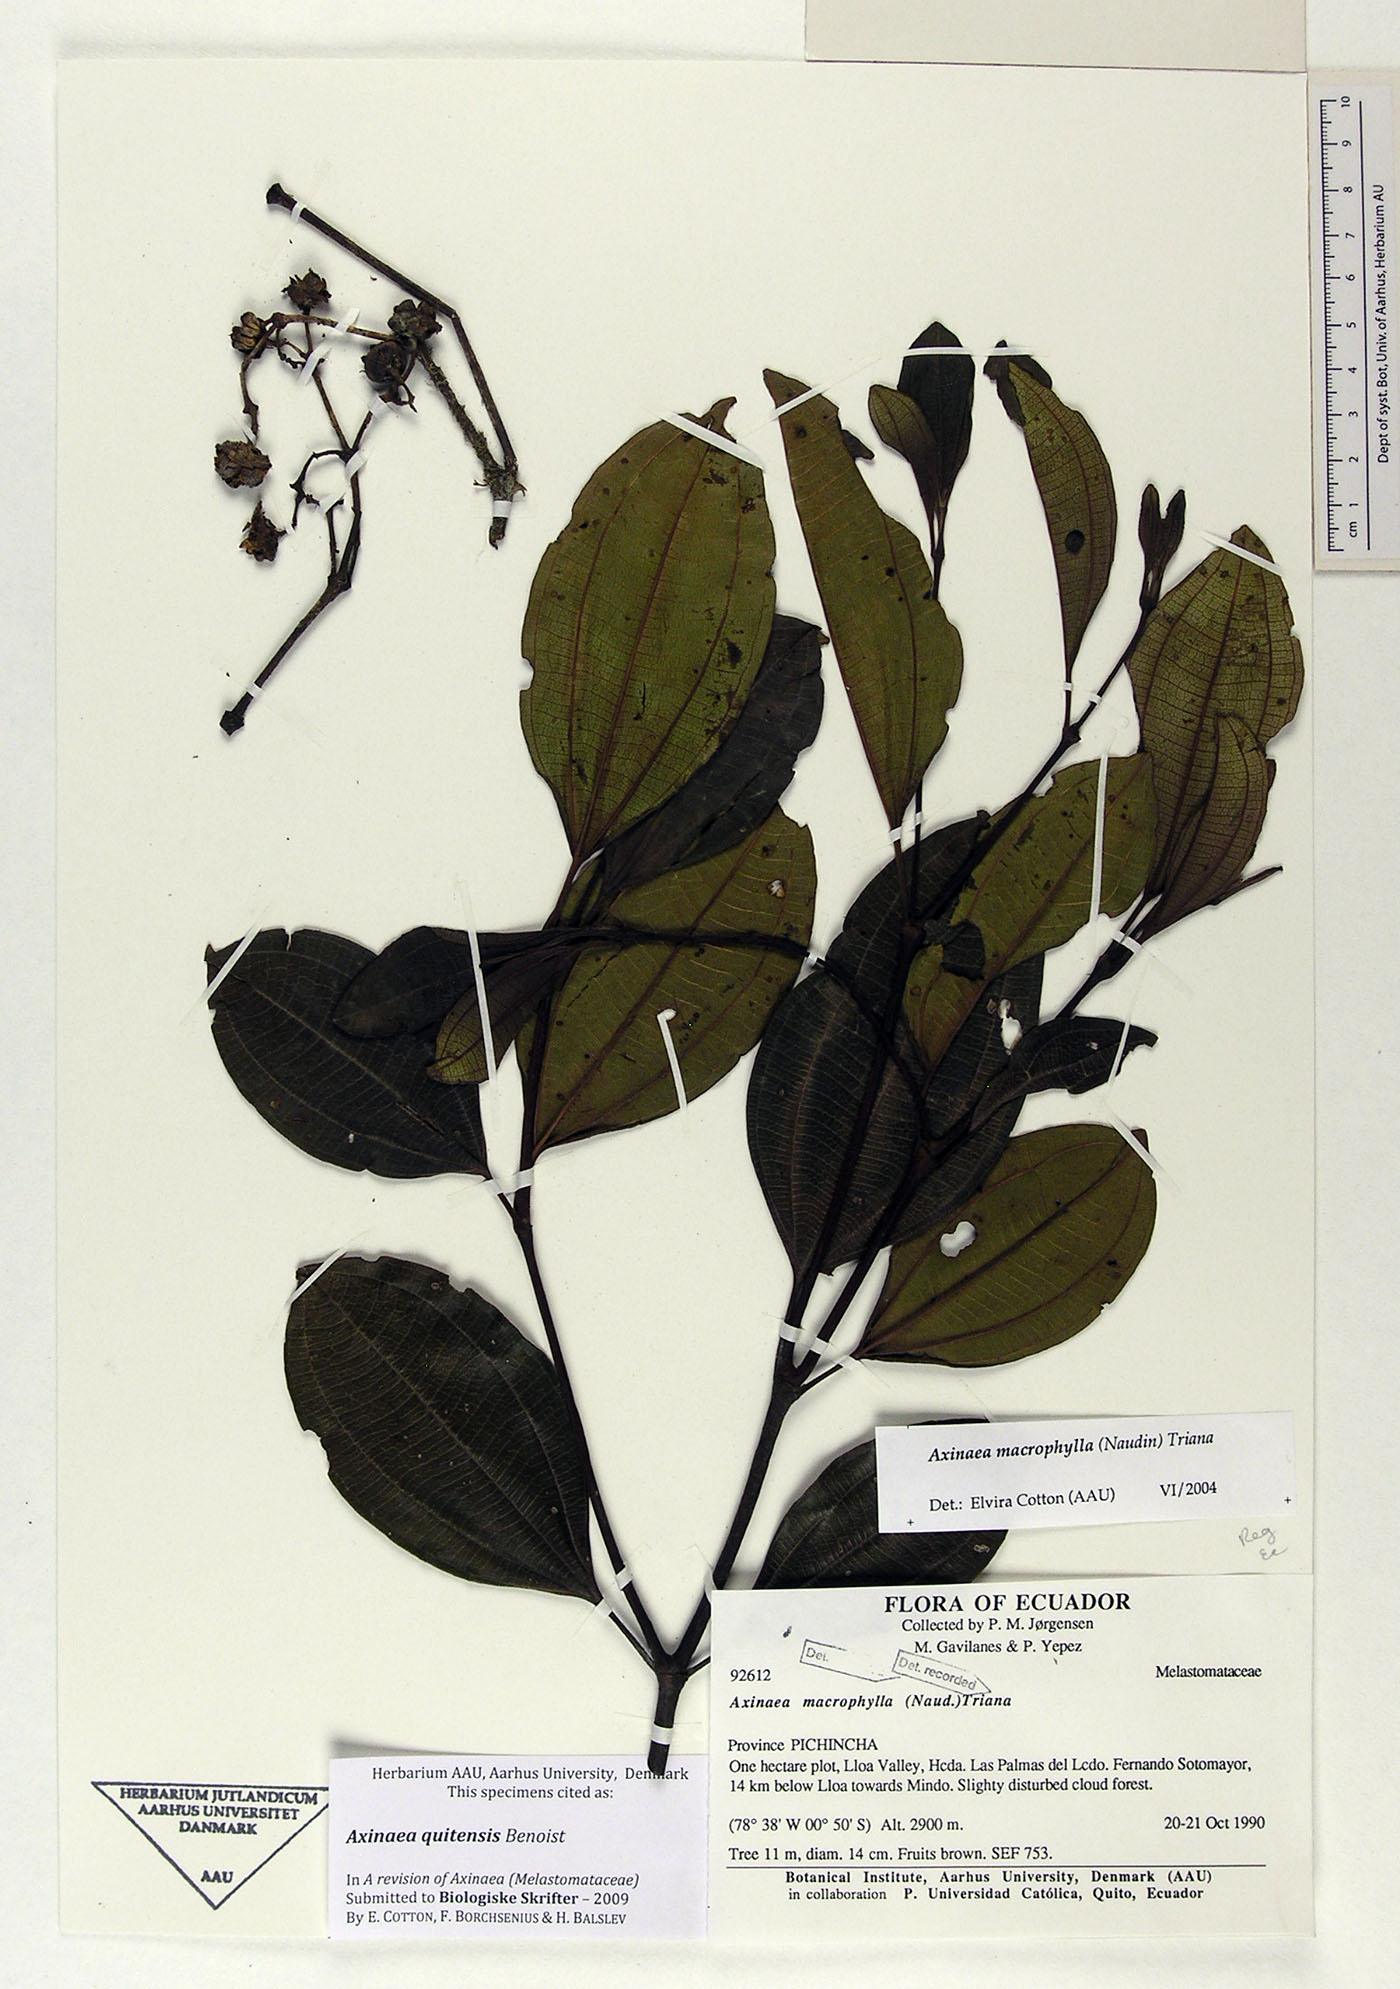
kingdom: Plantae
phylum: Tracheophyta
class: Magnoliopsida
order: Myrtales
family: Melastomataceae
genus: Axinaea
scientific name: Axinaea quitensis
